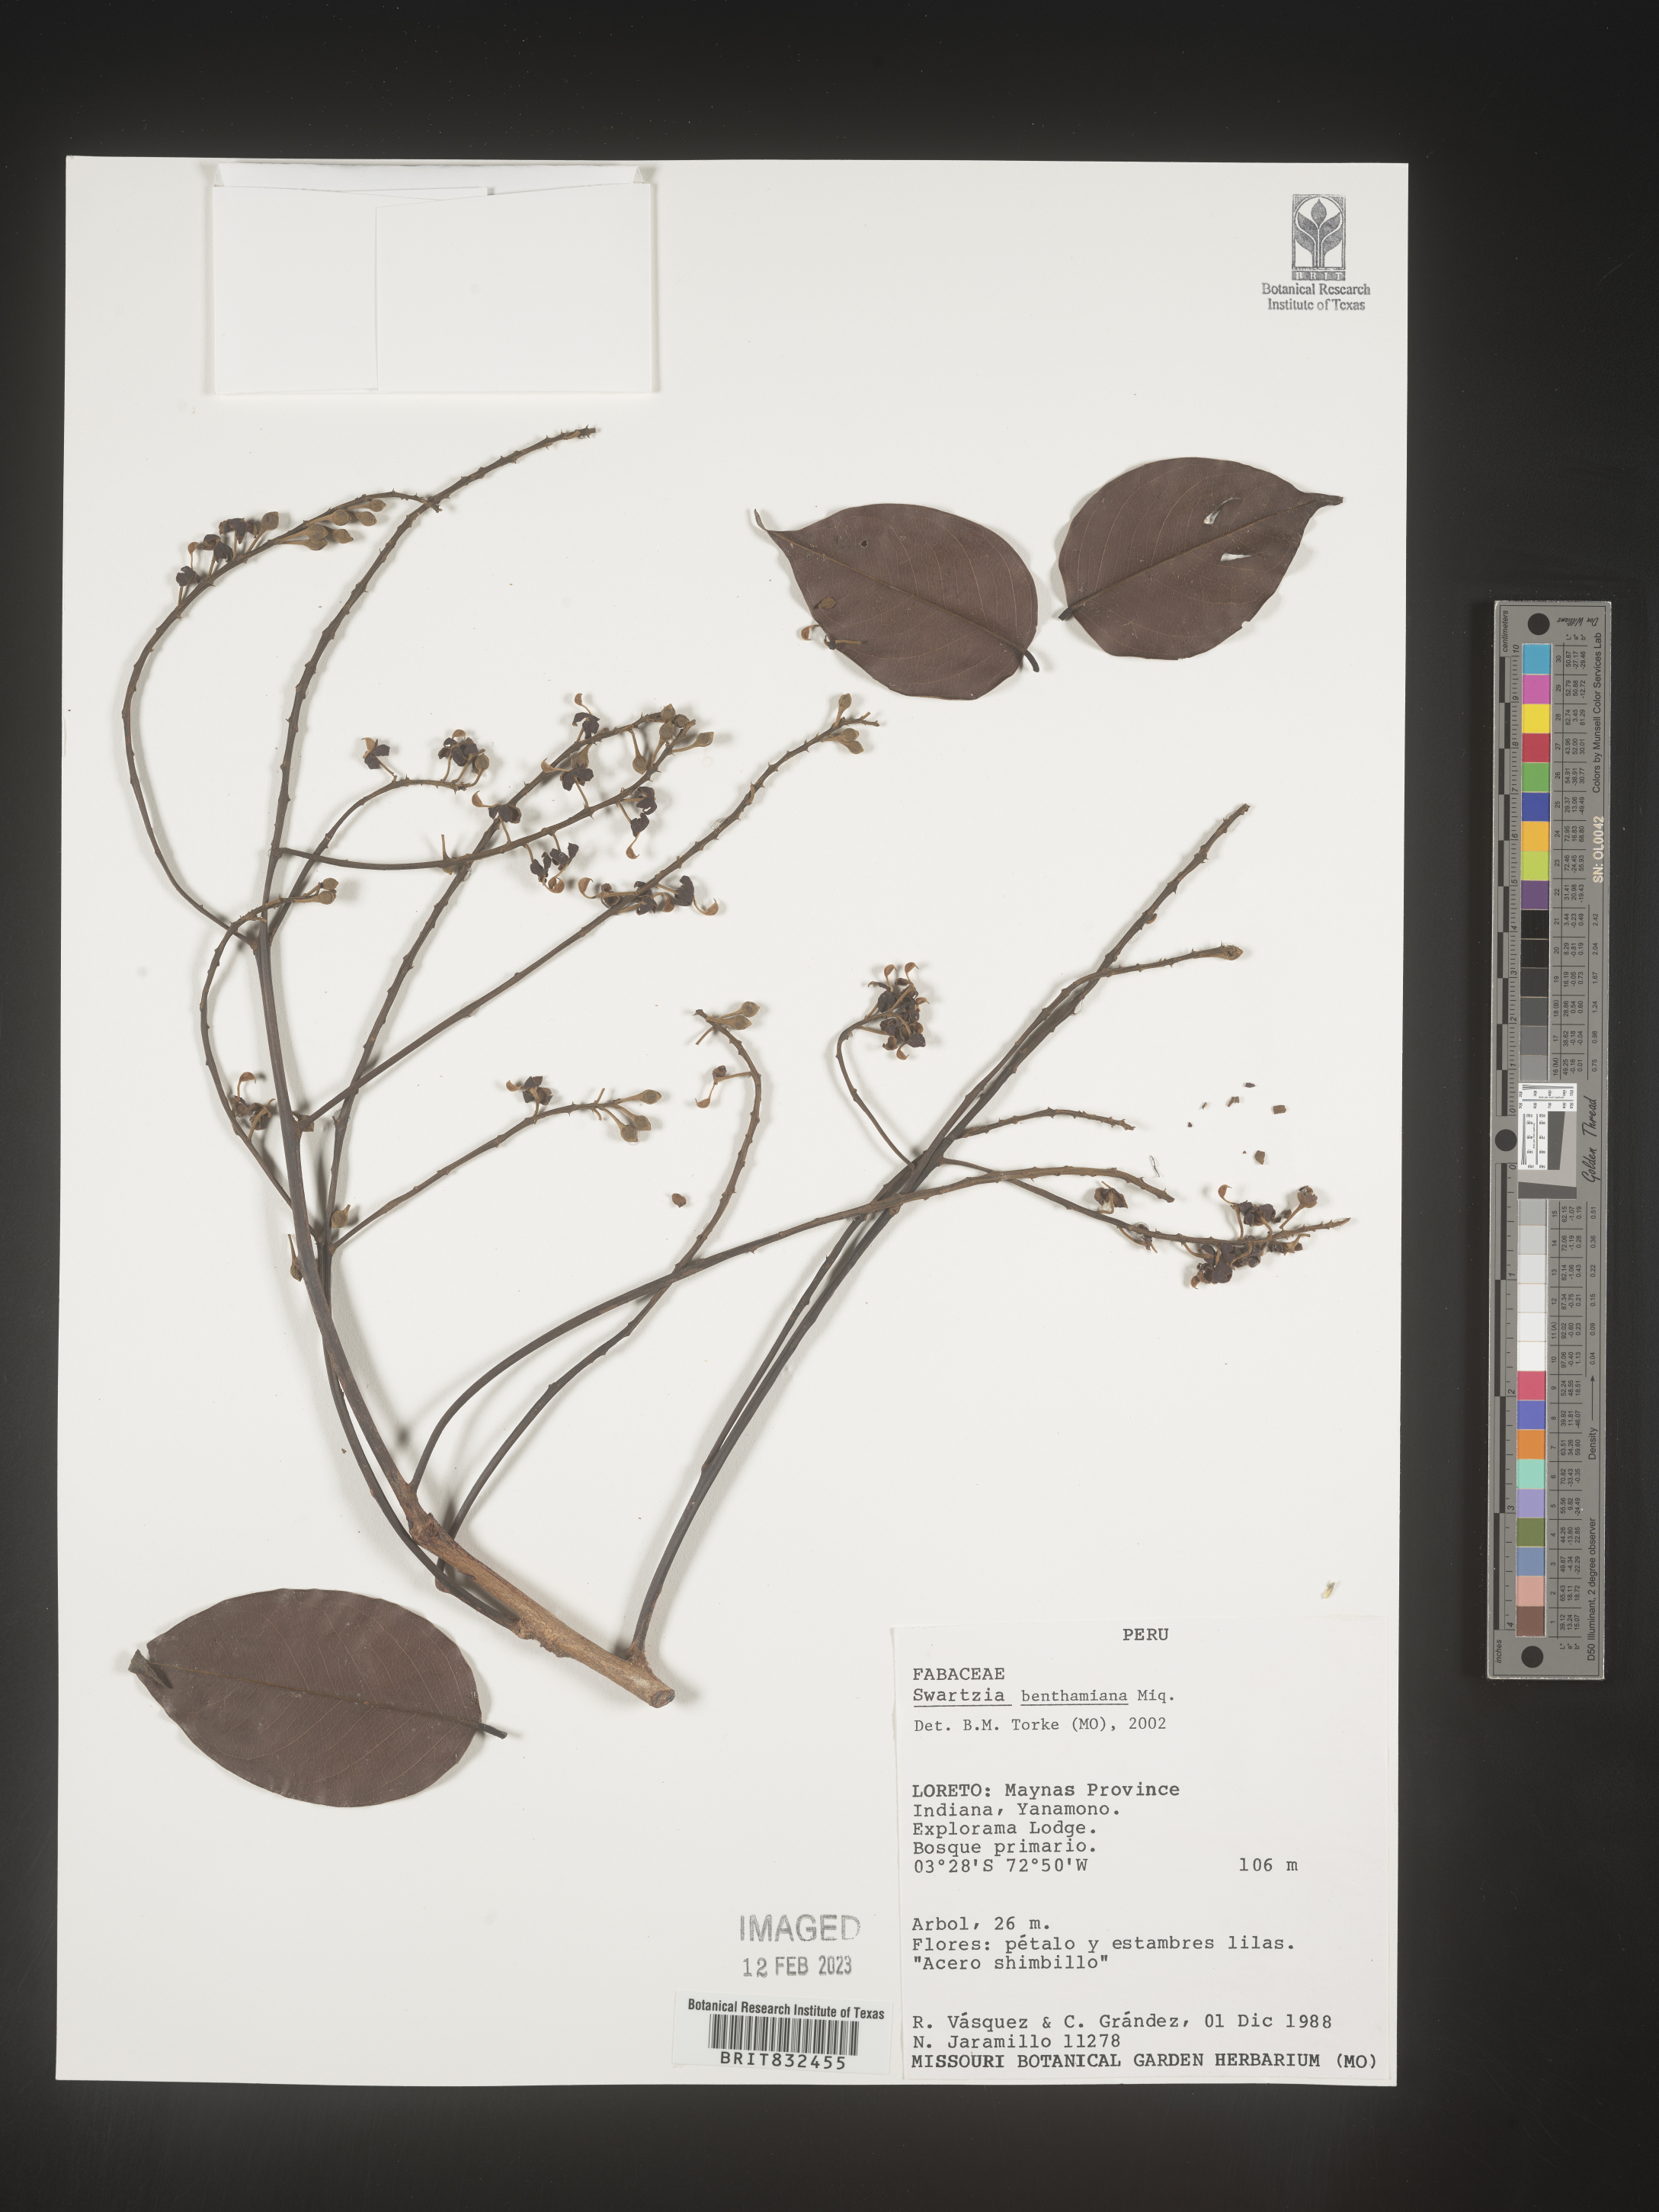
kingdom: Plantae
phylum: Tracheophyta
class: Magnoliopsida
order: Fabales
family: Fabaceae
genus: Swartzia
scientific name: Swartzia
